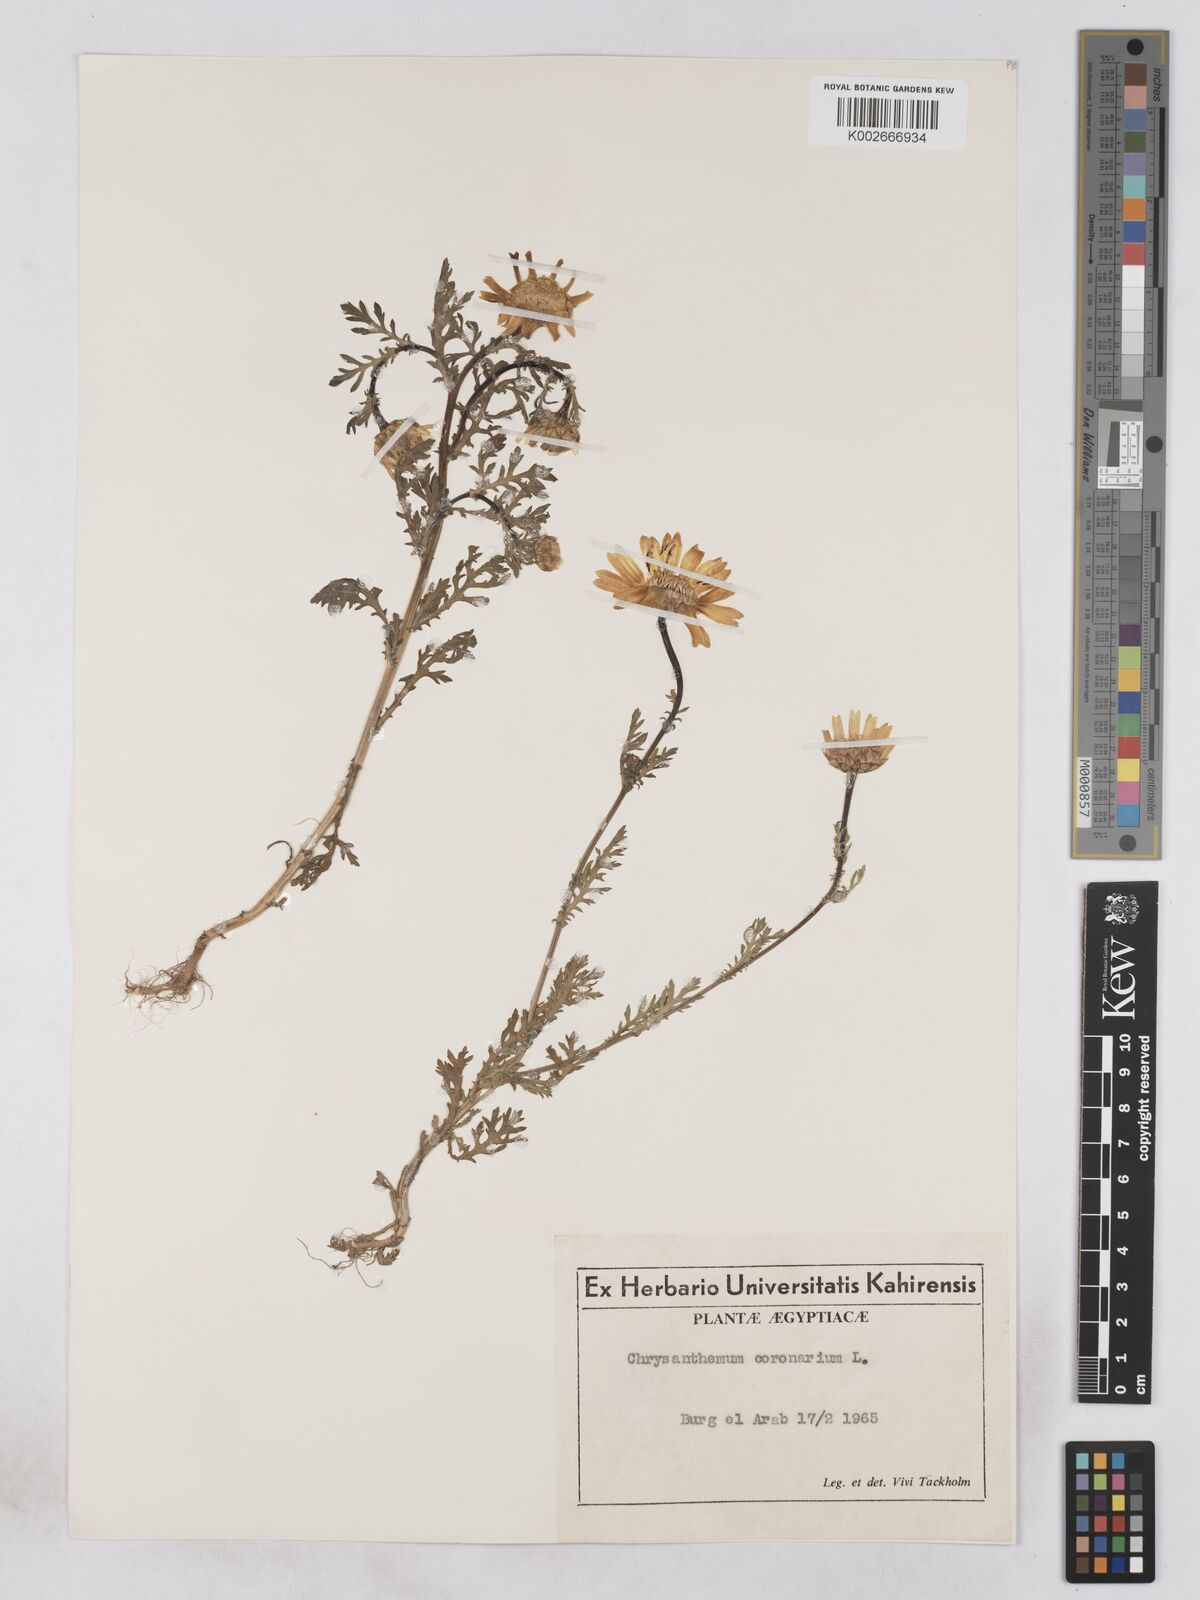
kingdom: Plantae
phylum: Tracheophyta
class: Magnoliopsida
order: Asterales
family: Asteraceae
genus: Glebionis
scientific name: Glebionis coronaria
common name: Crowndaisy
